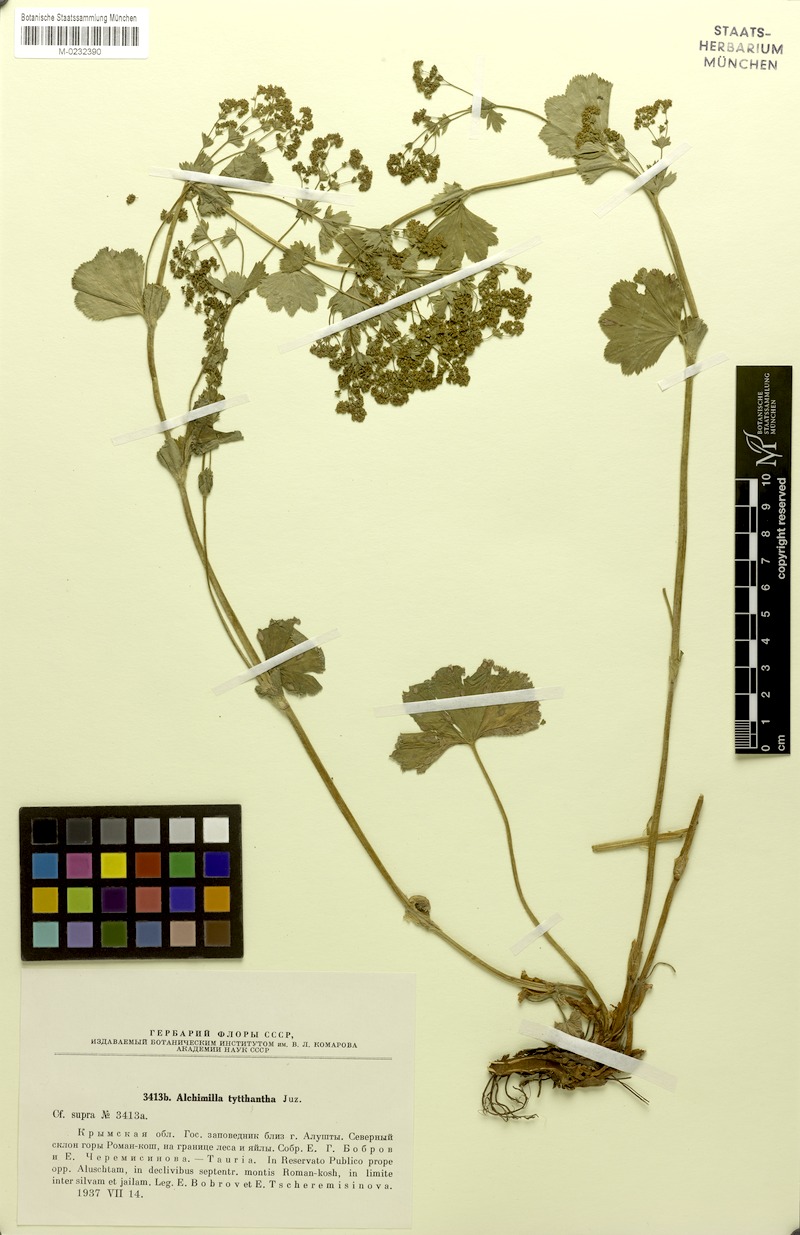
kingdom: Plantae
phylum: Tracheophyta
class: Magnoliopsida
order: Rosales
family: Rosaceae
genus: Alchemilla
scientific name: Alchemilla tytthantha
